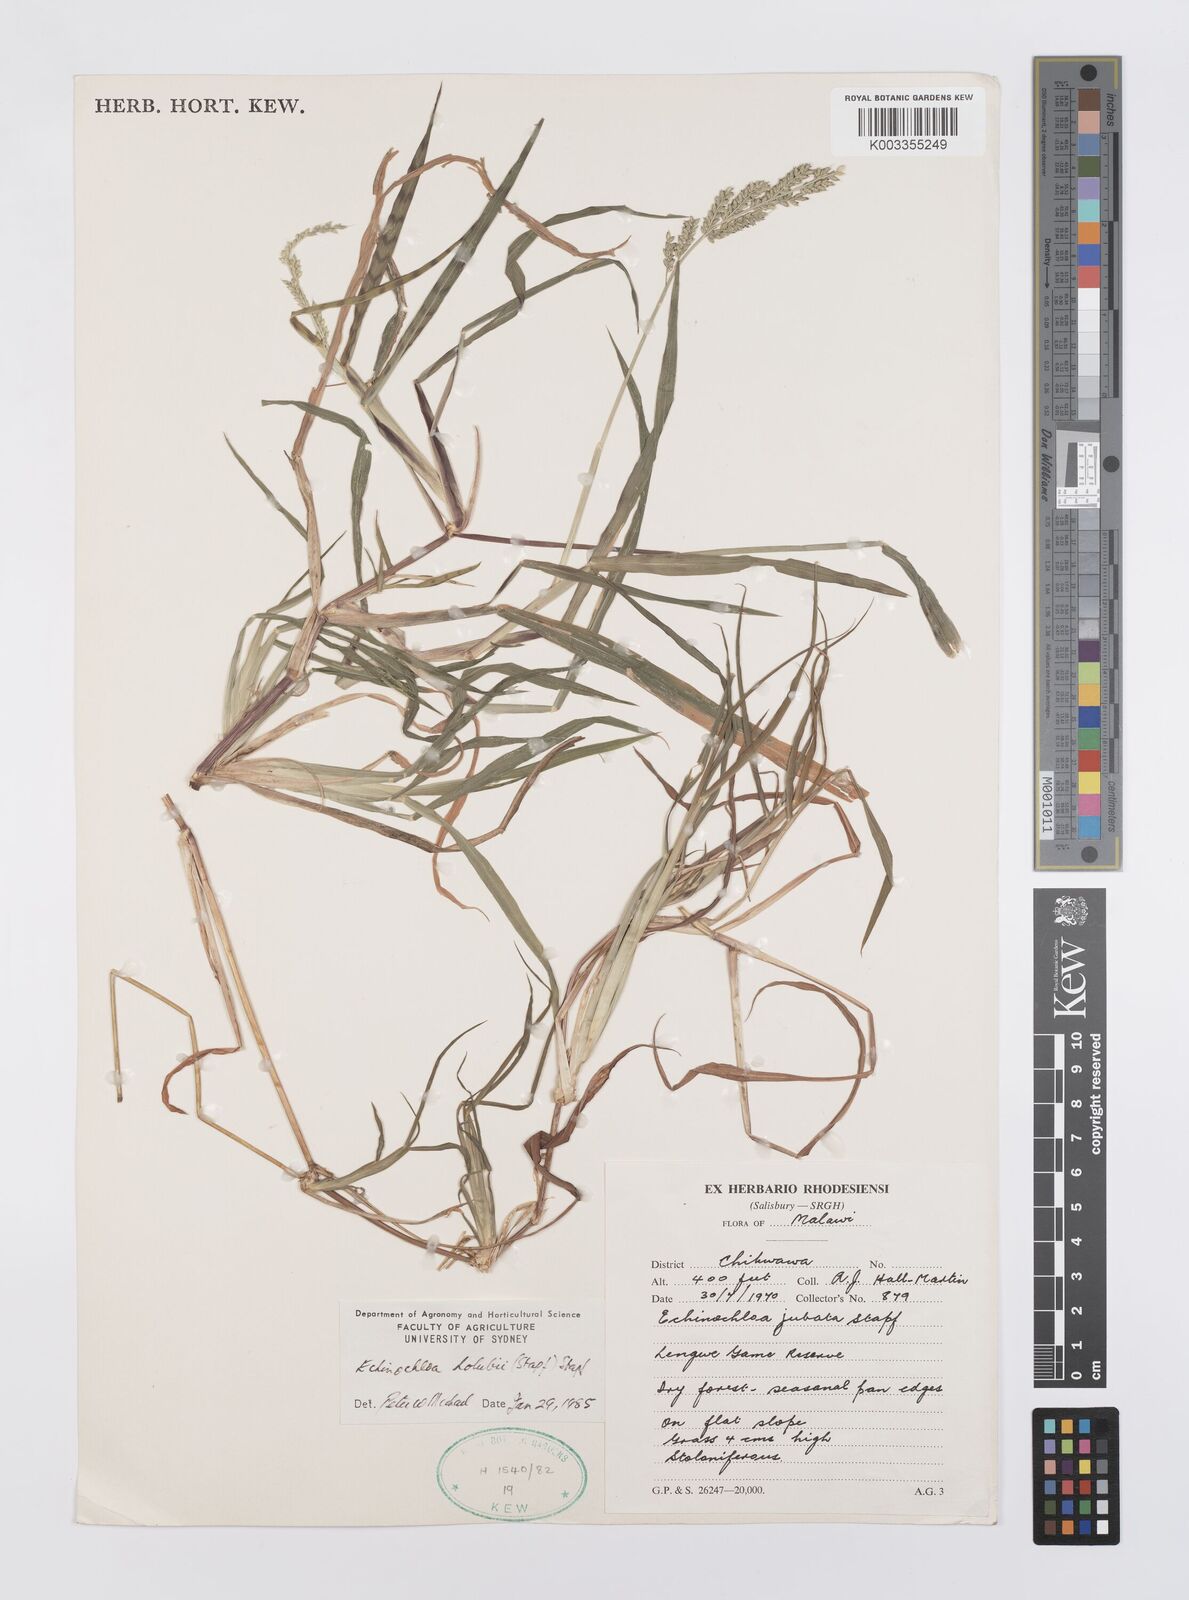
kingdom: Plantae
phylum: Tracheophyta
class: Liliopsida
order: Poales
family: Poaceae
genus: Echinochloa
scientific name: Echinochloa pyramidalis
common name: Antelope grass
